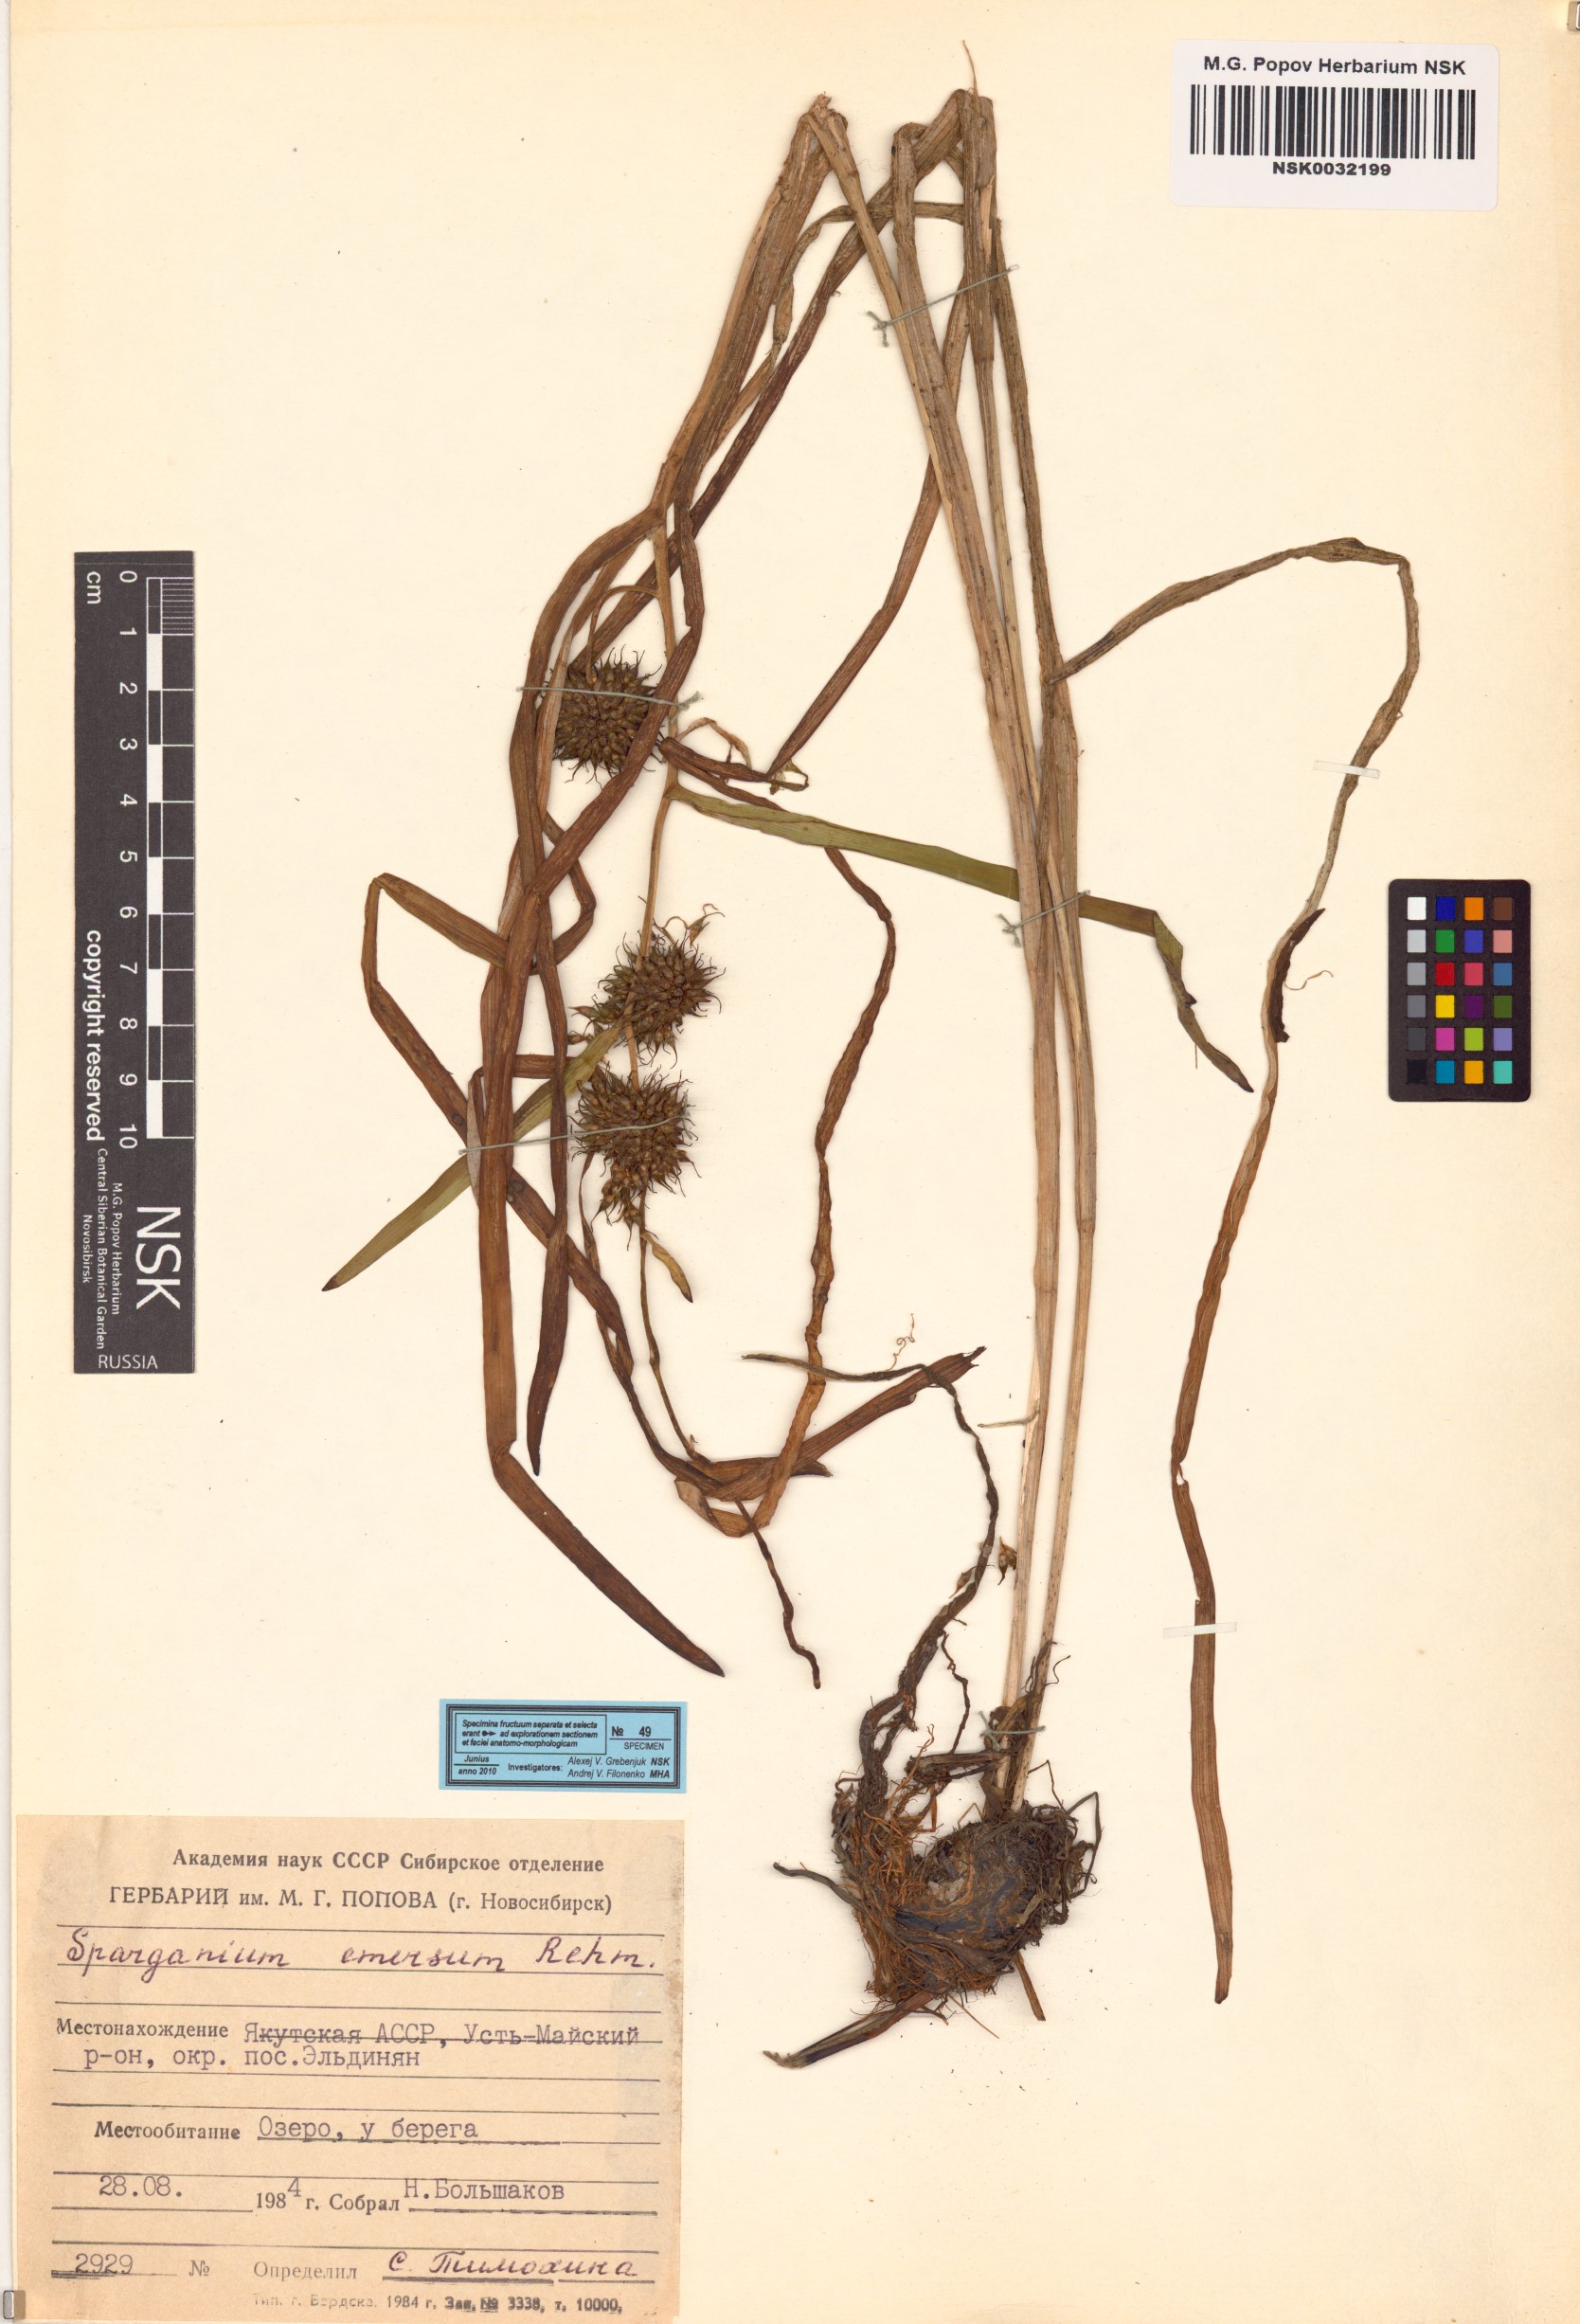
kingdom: Plantae
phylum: Tracheophyta
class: Liliopsida
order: Poales
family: Typhaceae
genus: Sparganium
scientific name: Sparganium emersum
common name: Unbranched bur-reed
